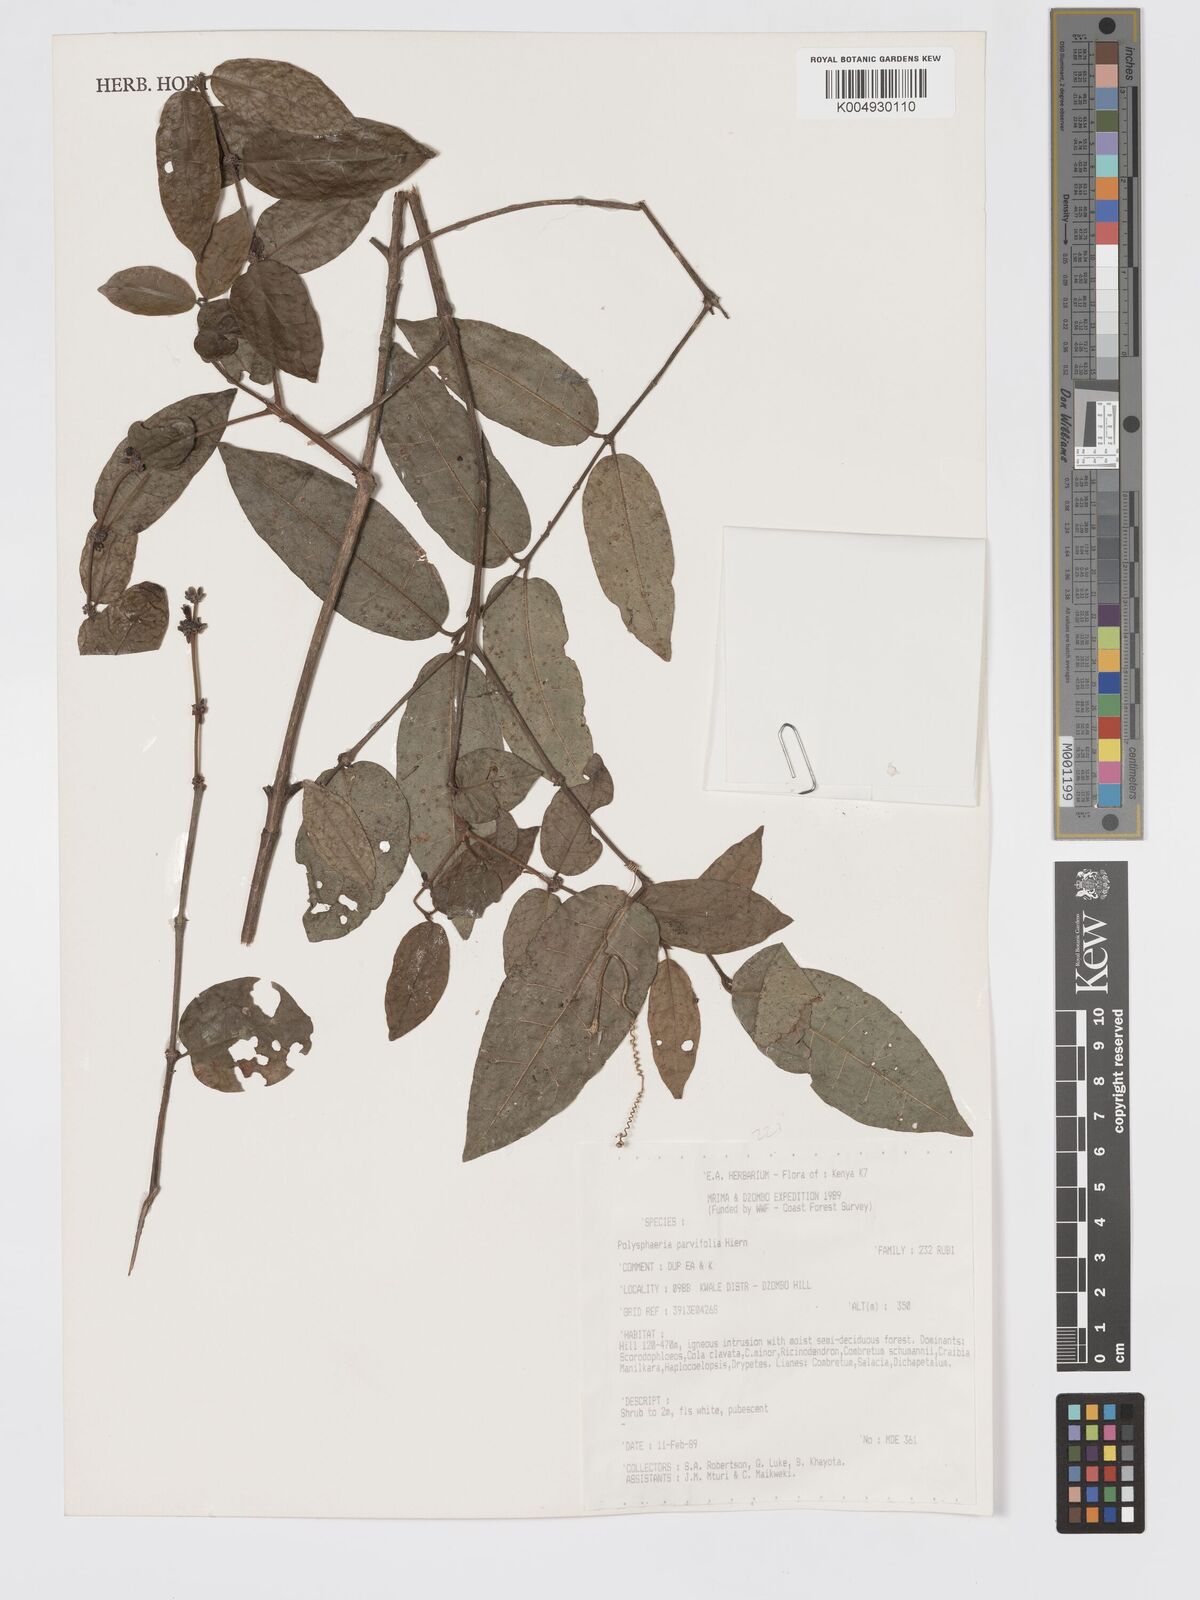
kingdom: Plantae
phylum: Tracheophyta
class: Magnoliopsida
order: Gentianales
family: Rubiaceae
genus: Polysphaeria
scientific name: Polysphaeria parvifolia
